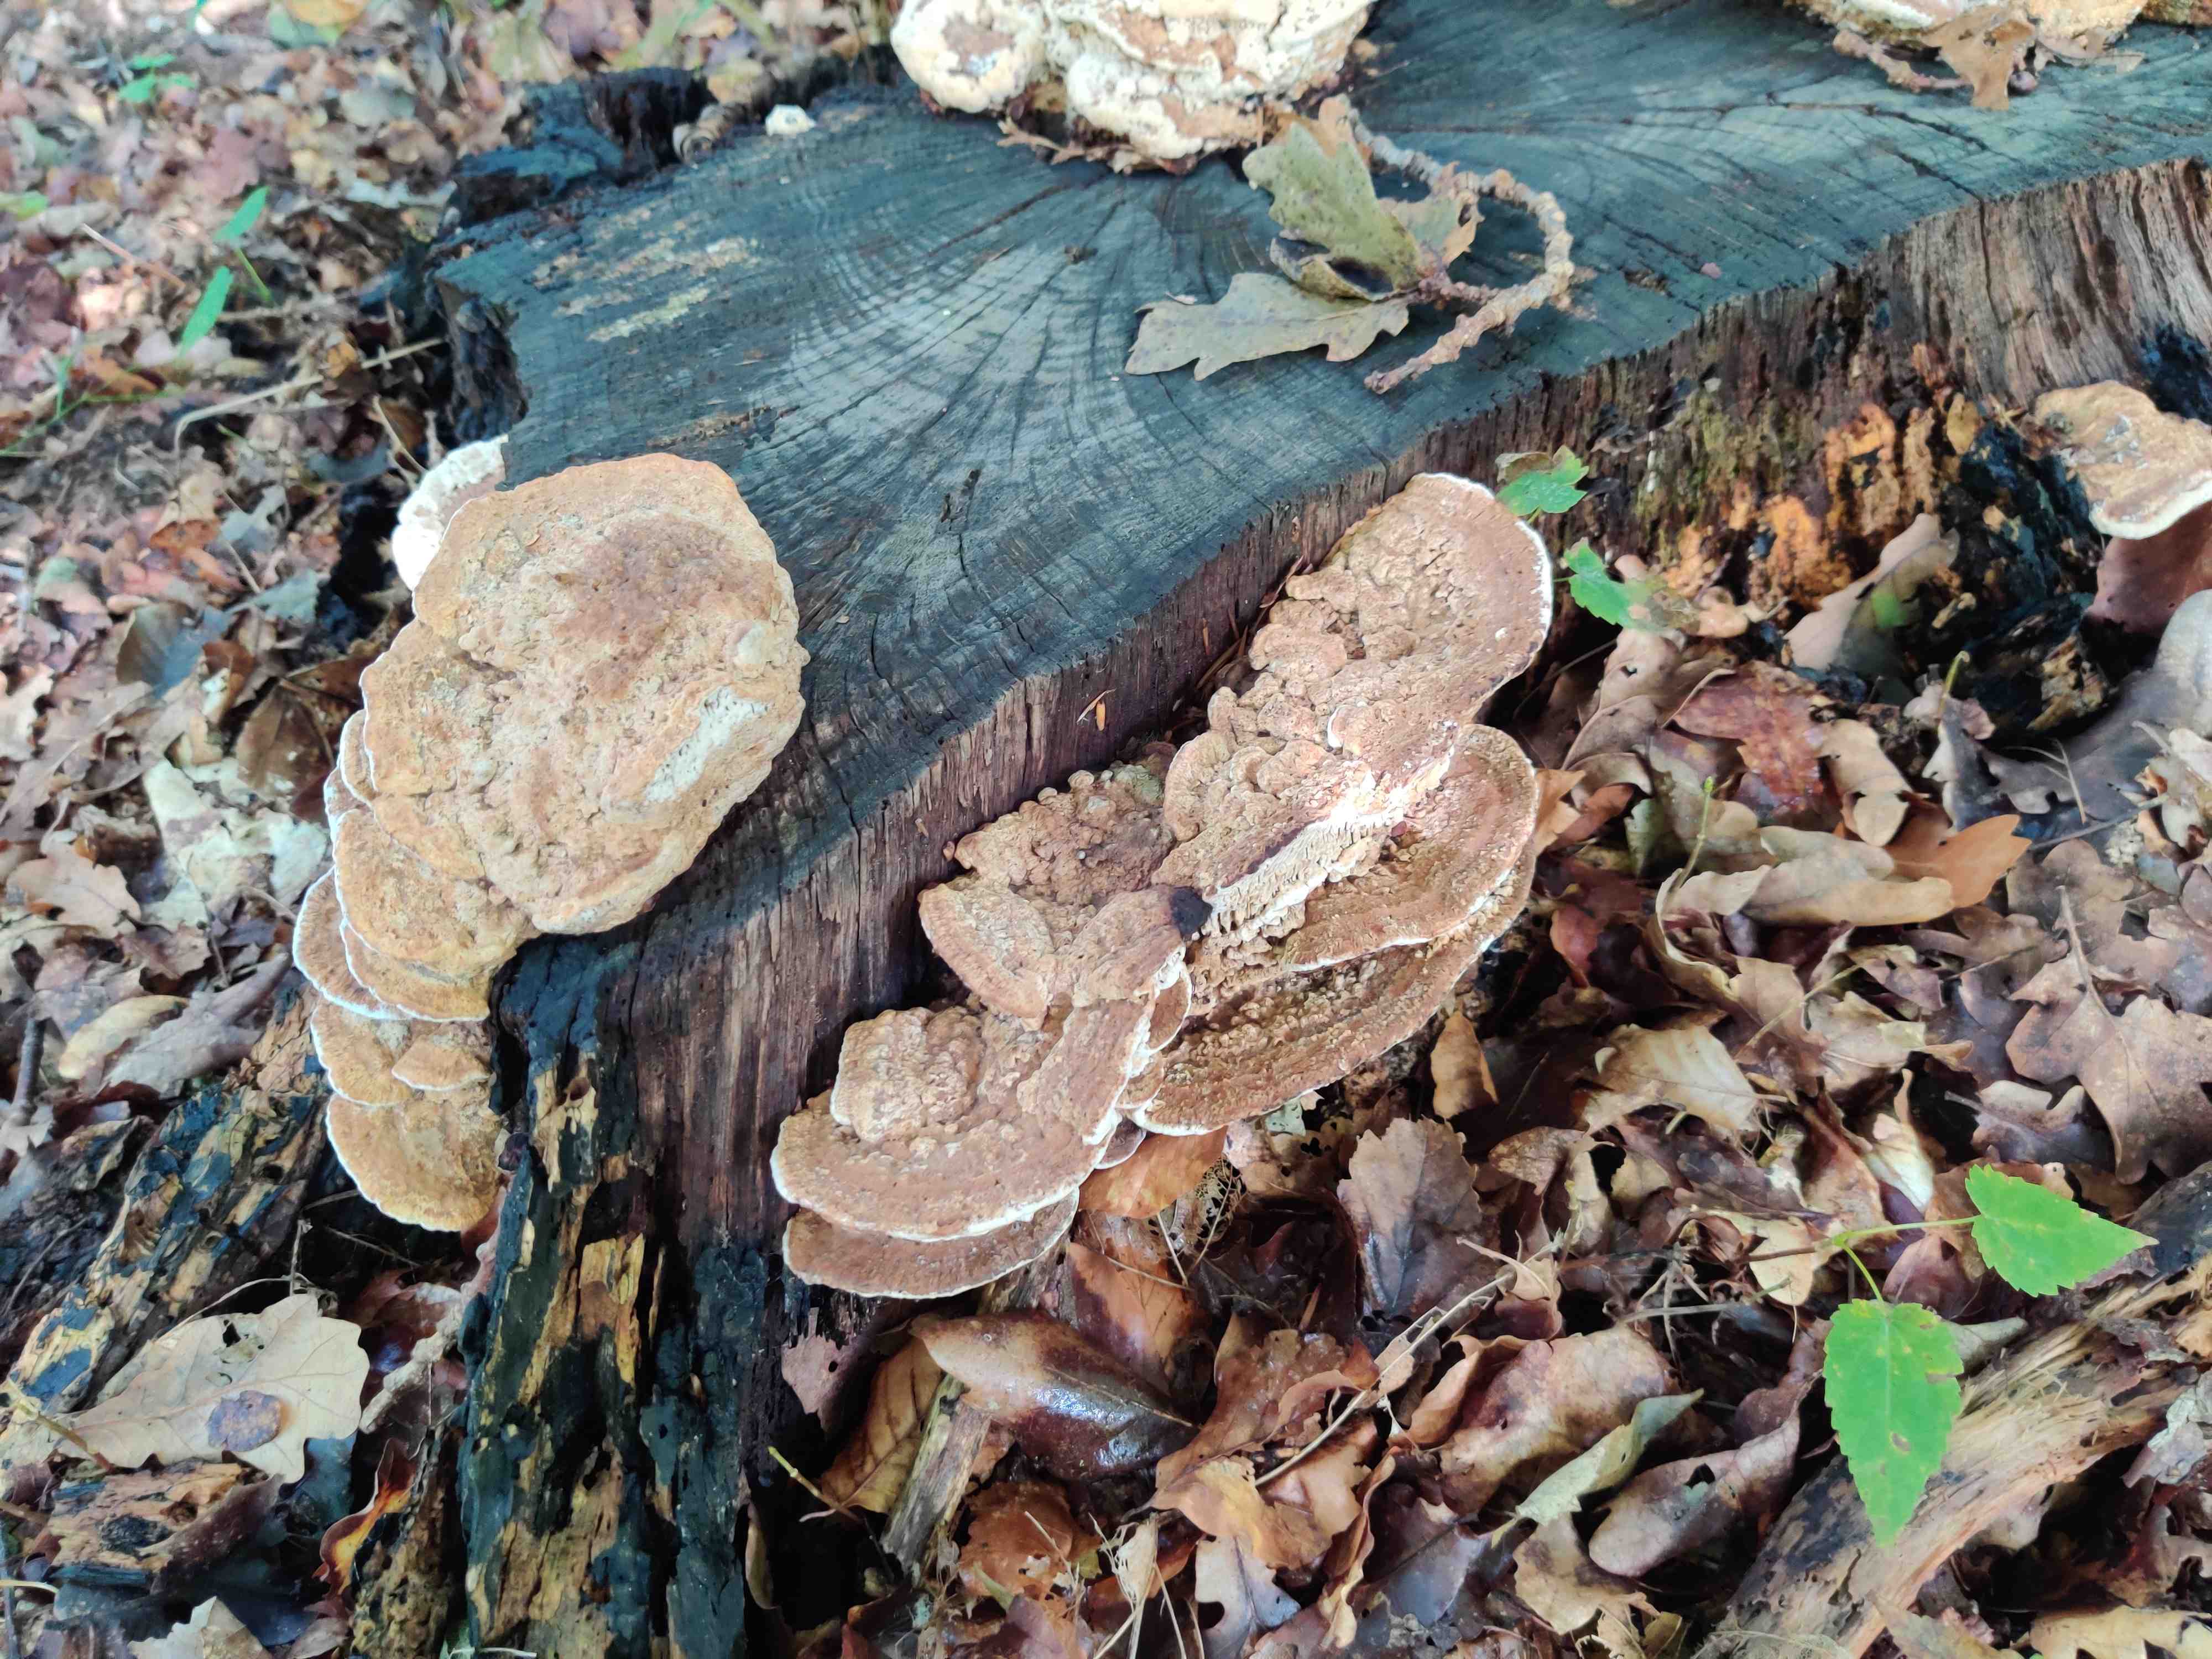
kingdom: Fungi
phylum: Basidiomycota
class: Agaricomycetes
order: Polyporales
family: Fomitopsidaceae
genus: Daedalea
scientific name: Daedalea quercina
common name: ege-labyrintsvamp
